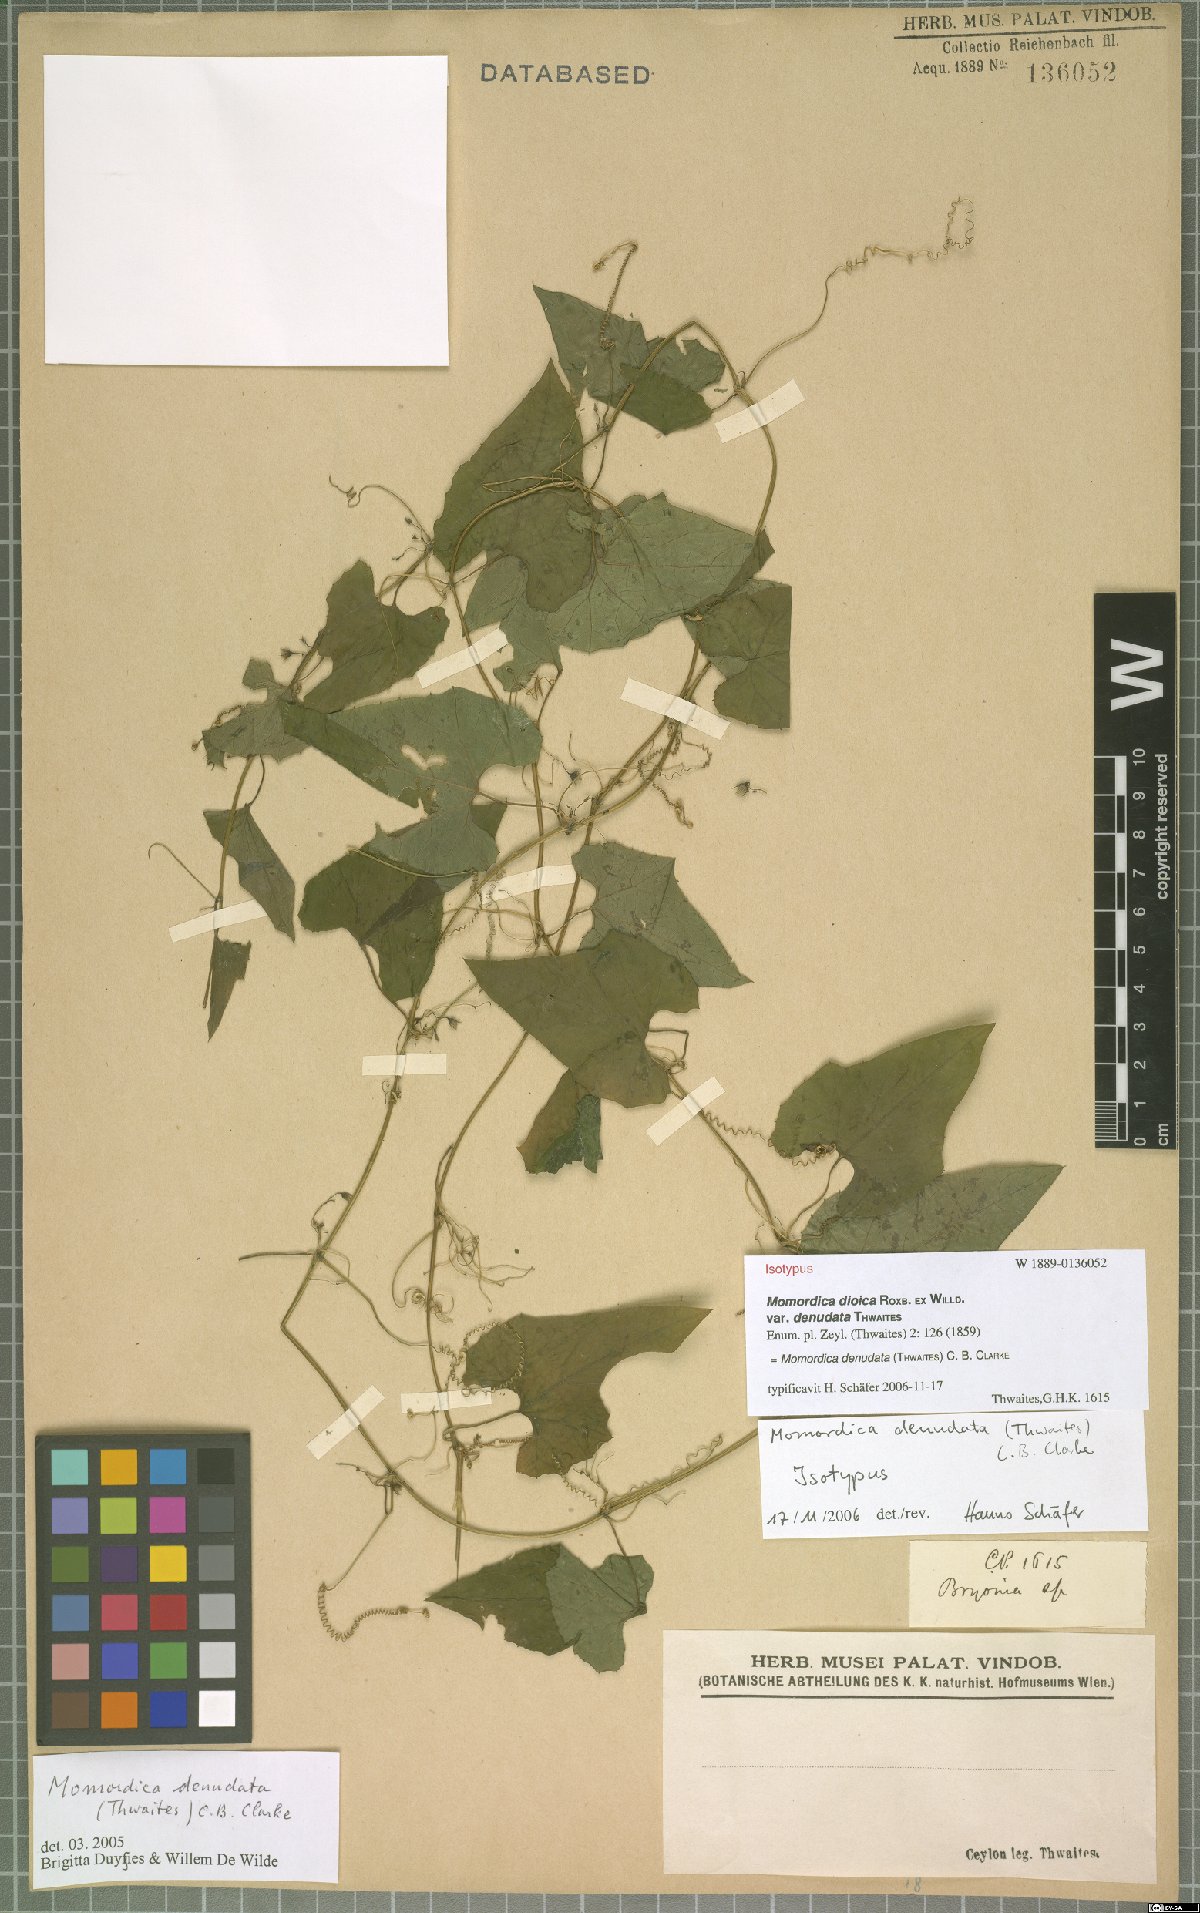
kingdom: Plantae
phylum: Tracheophyta
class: Magnoliopsida
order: Cucurbitales
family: Cucurbitaceae
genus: Momordica
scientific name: Momordica denudata
